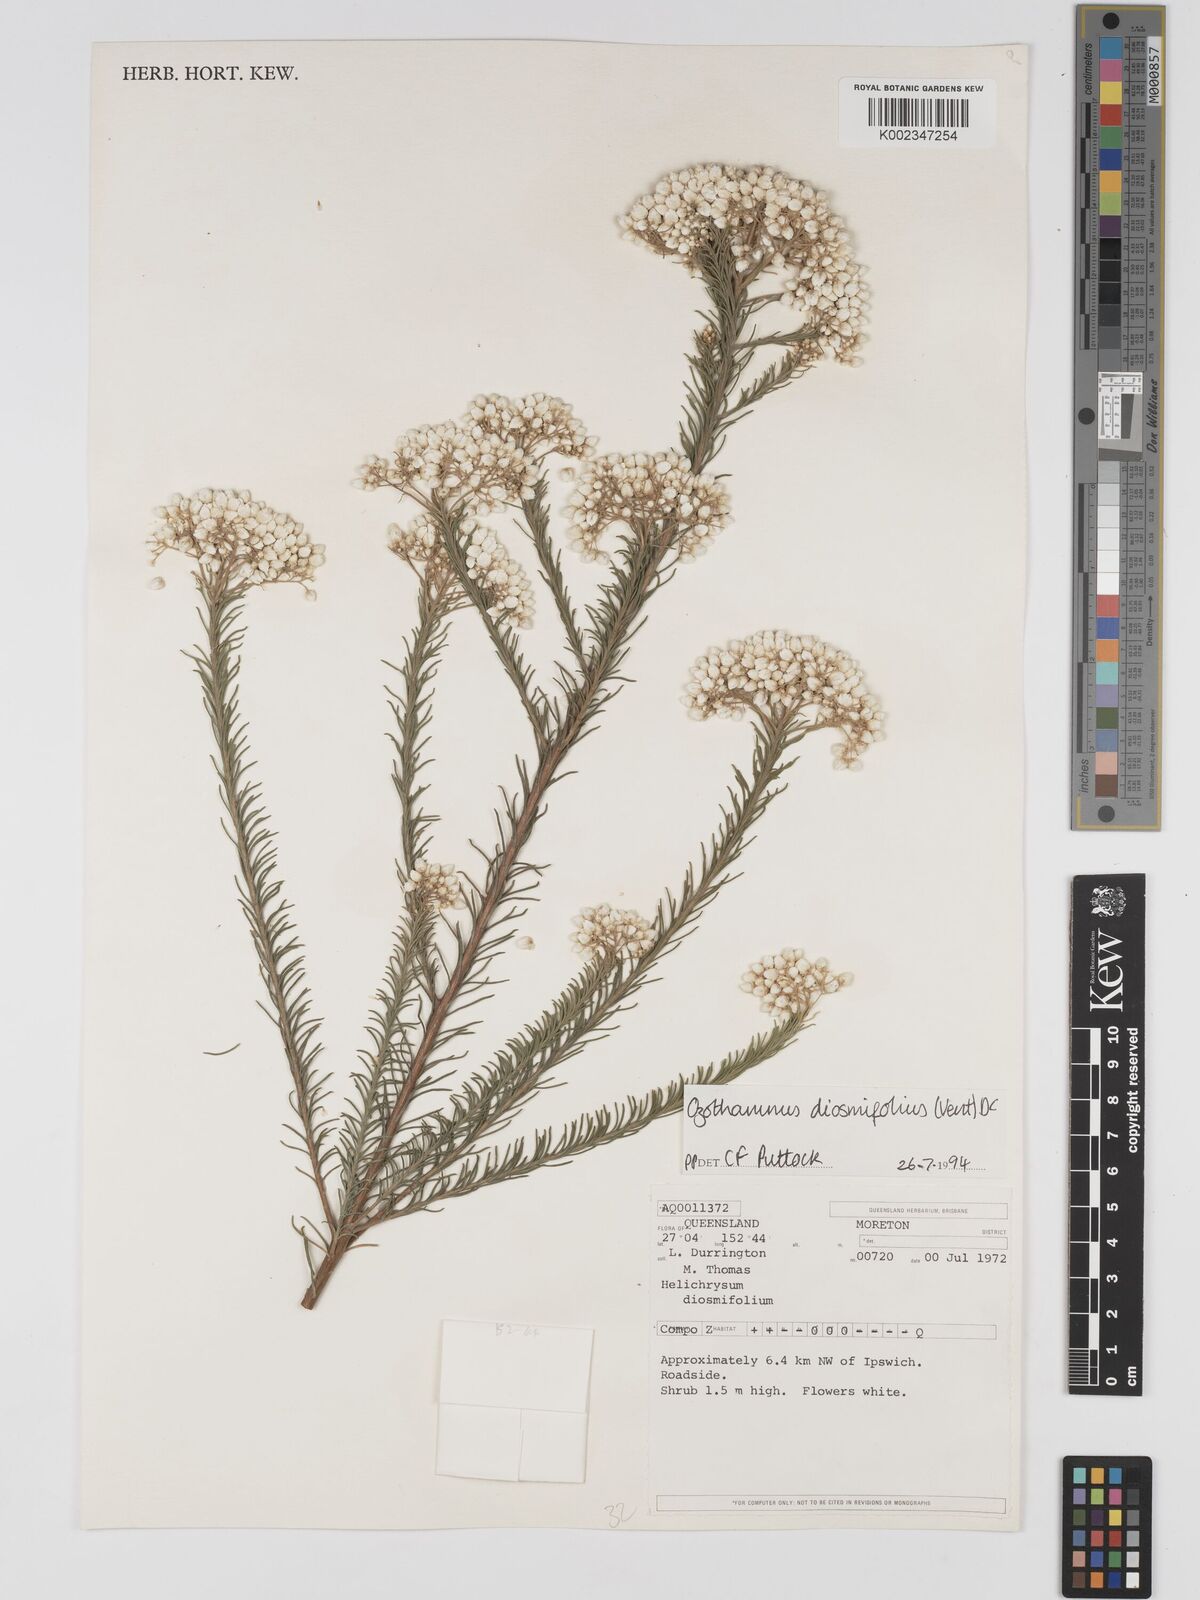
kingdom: Plantae
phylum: Tracheophyta
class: Magnoliopsida
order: Asterales
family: Asteraceae
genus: Ozothamnus
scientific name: Ozothamnus diosmifolius
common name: White-dogwood
